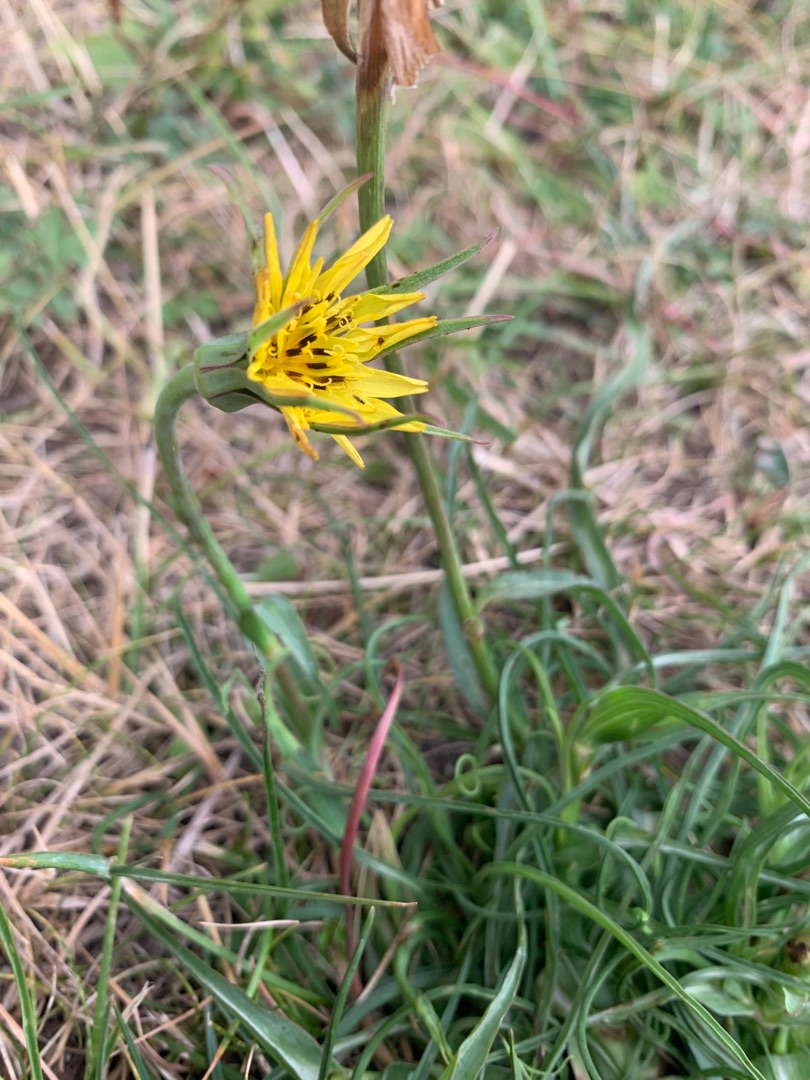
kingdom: Plantae
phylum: Tracheophyta
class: Magnoliopsida
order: Asterales
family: Asteraceae
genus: Tragopogon
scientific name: Tragopogon minor
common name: Småkronet gedeskæg
